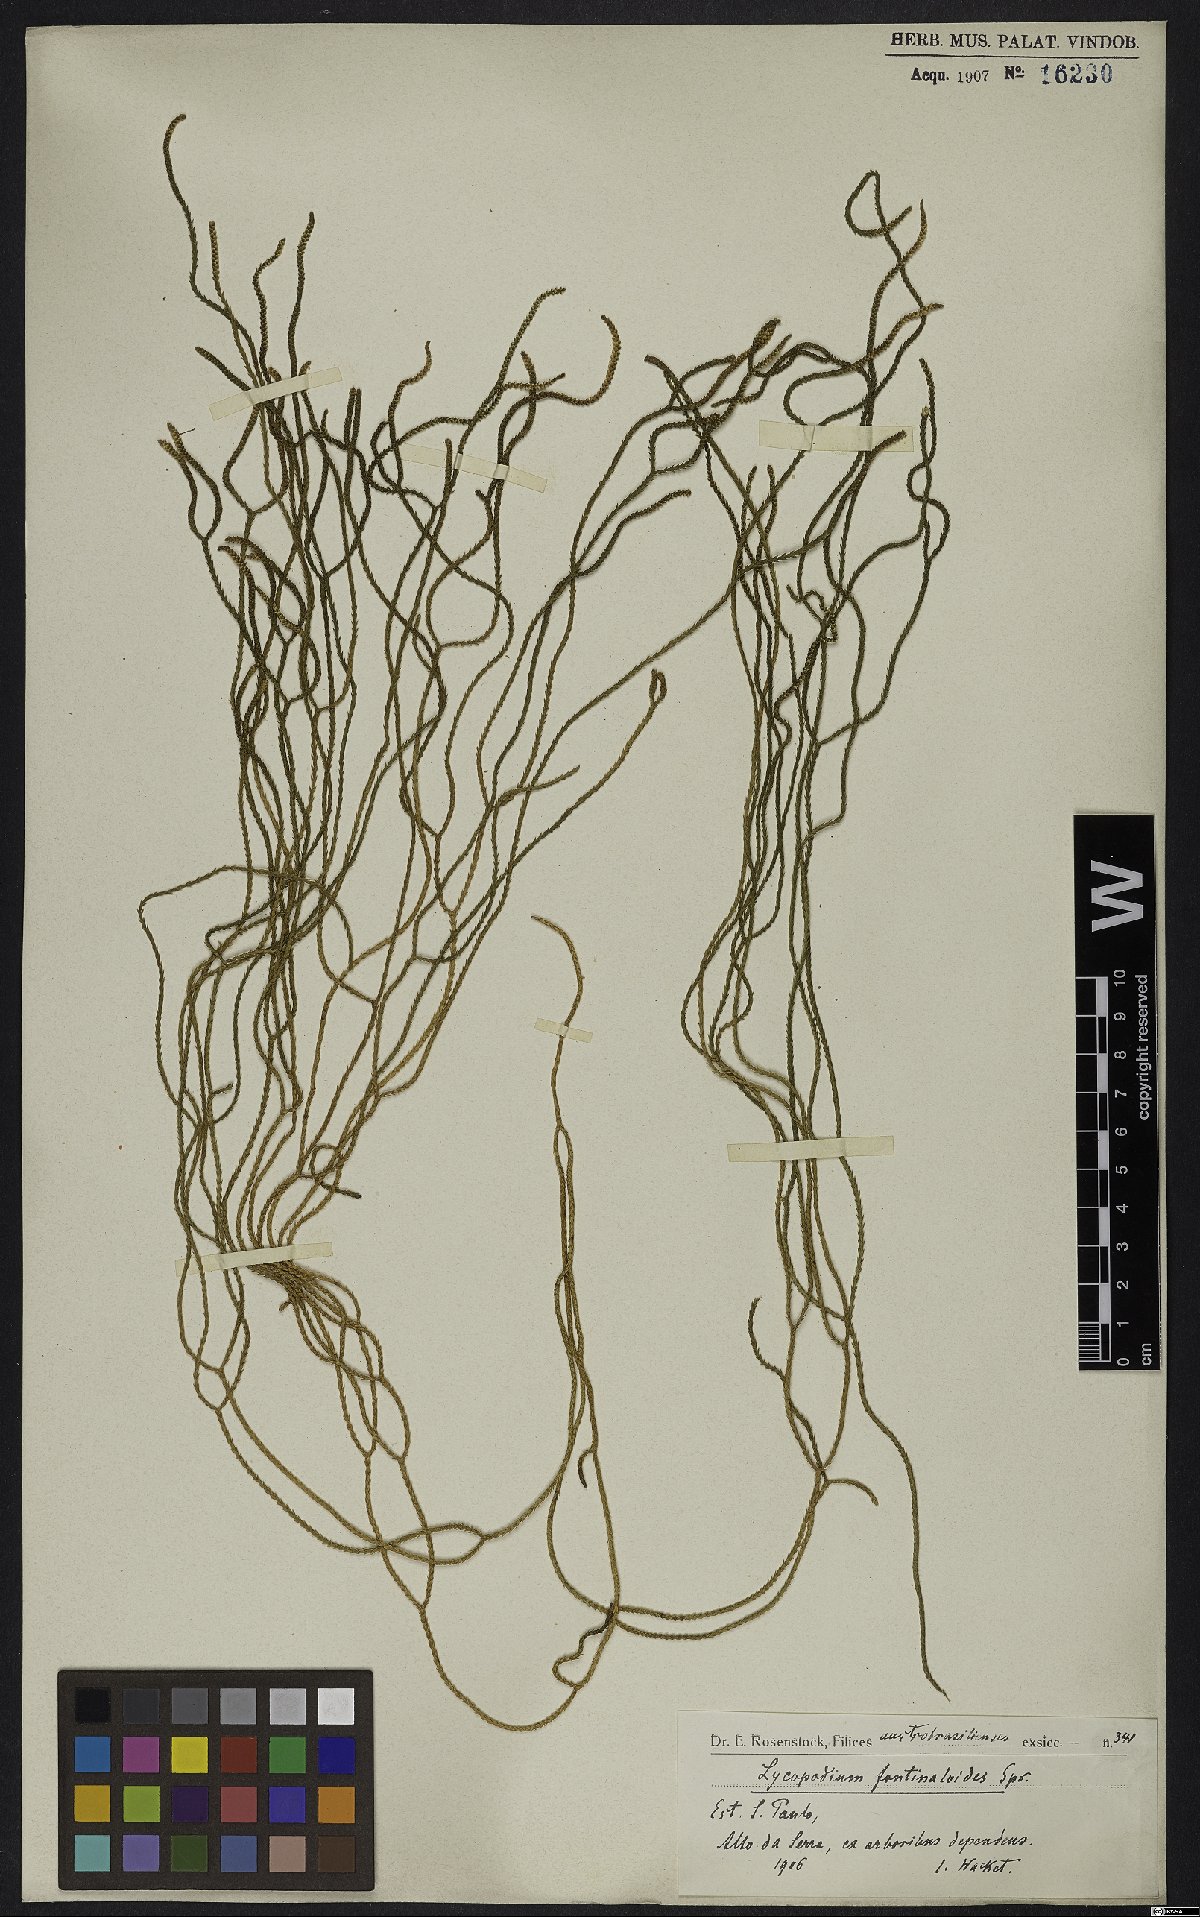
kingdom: Plantae
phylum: Tracheophyta
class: Lycopodiopsida
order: Lycopodiales
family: Lycopodiaceae
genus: Phlegmariurus
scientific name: Phlegmariurus fontinaloides
